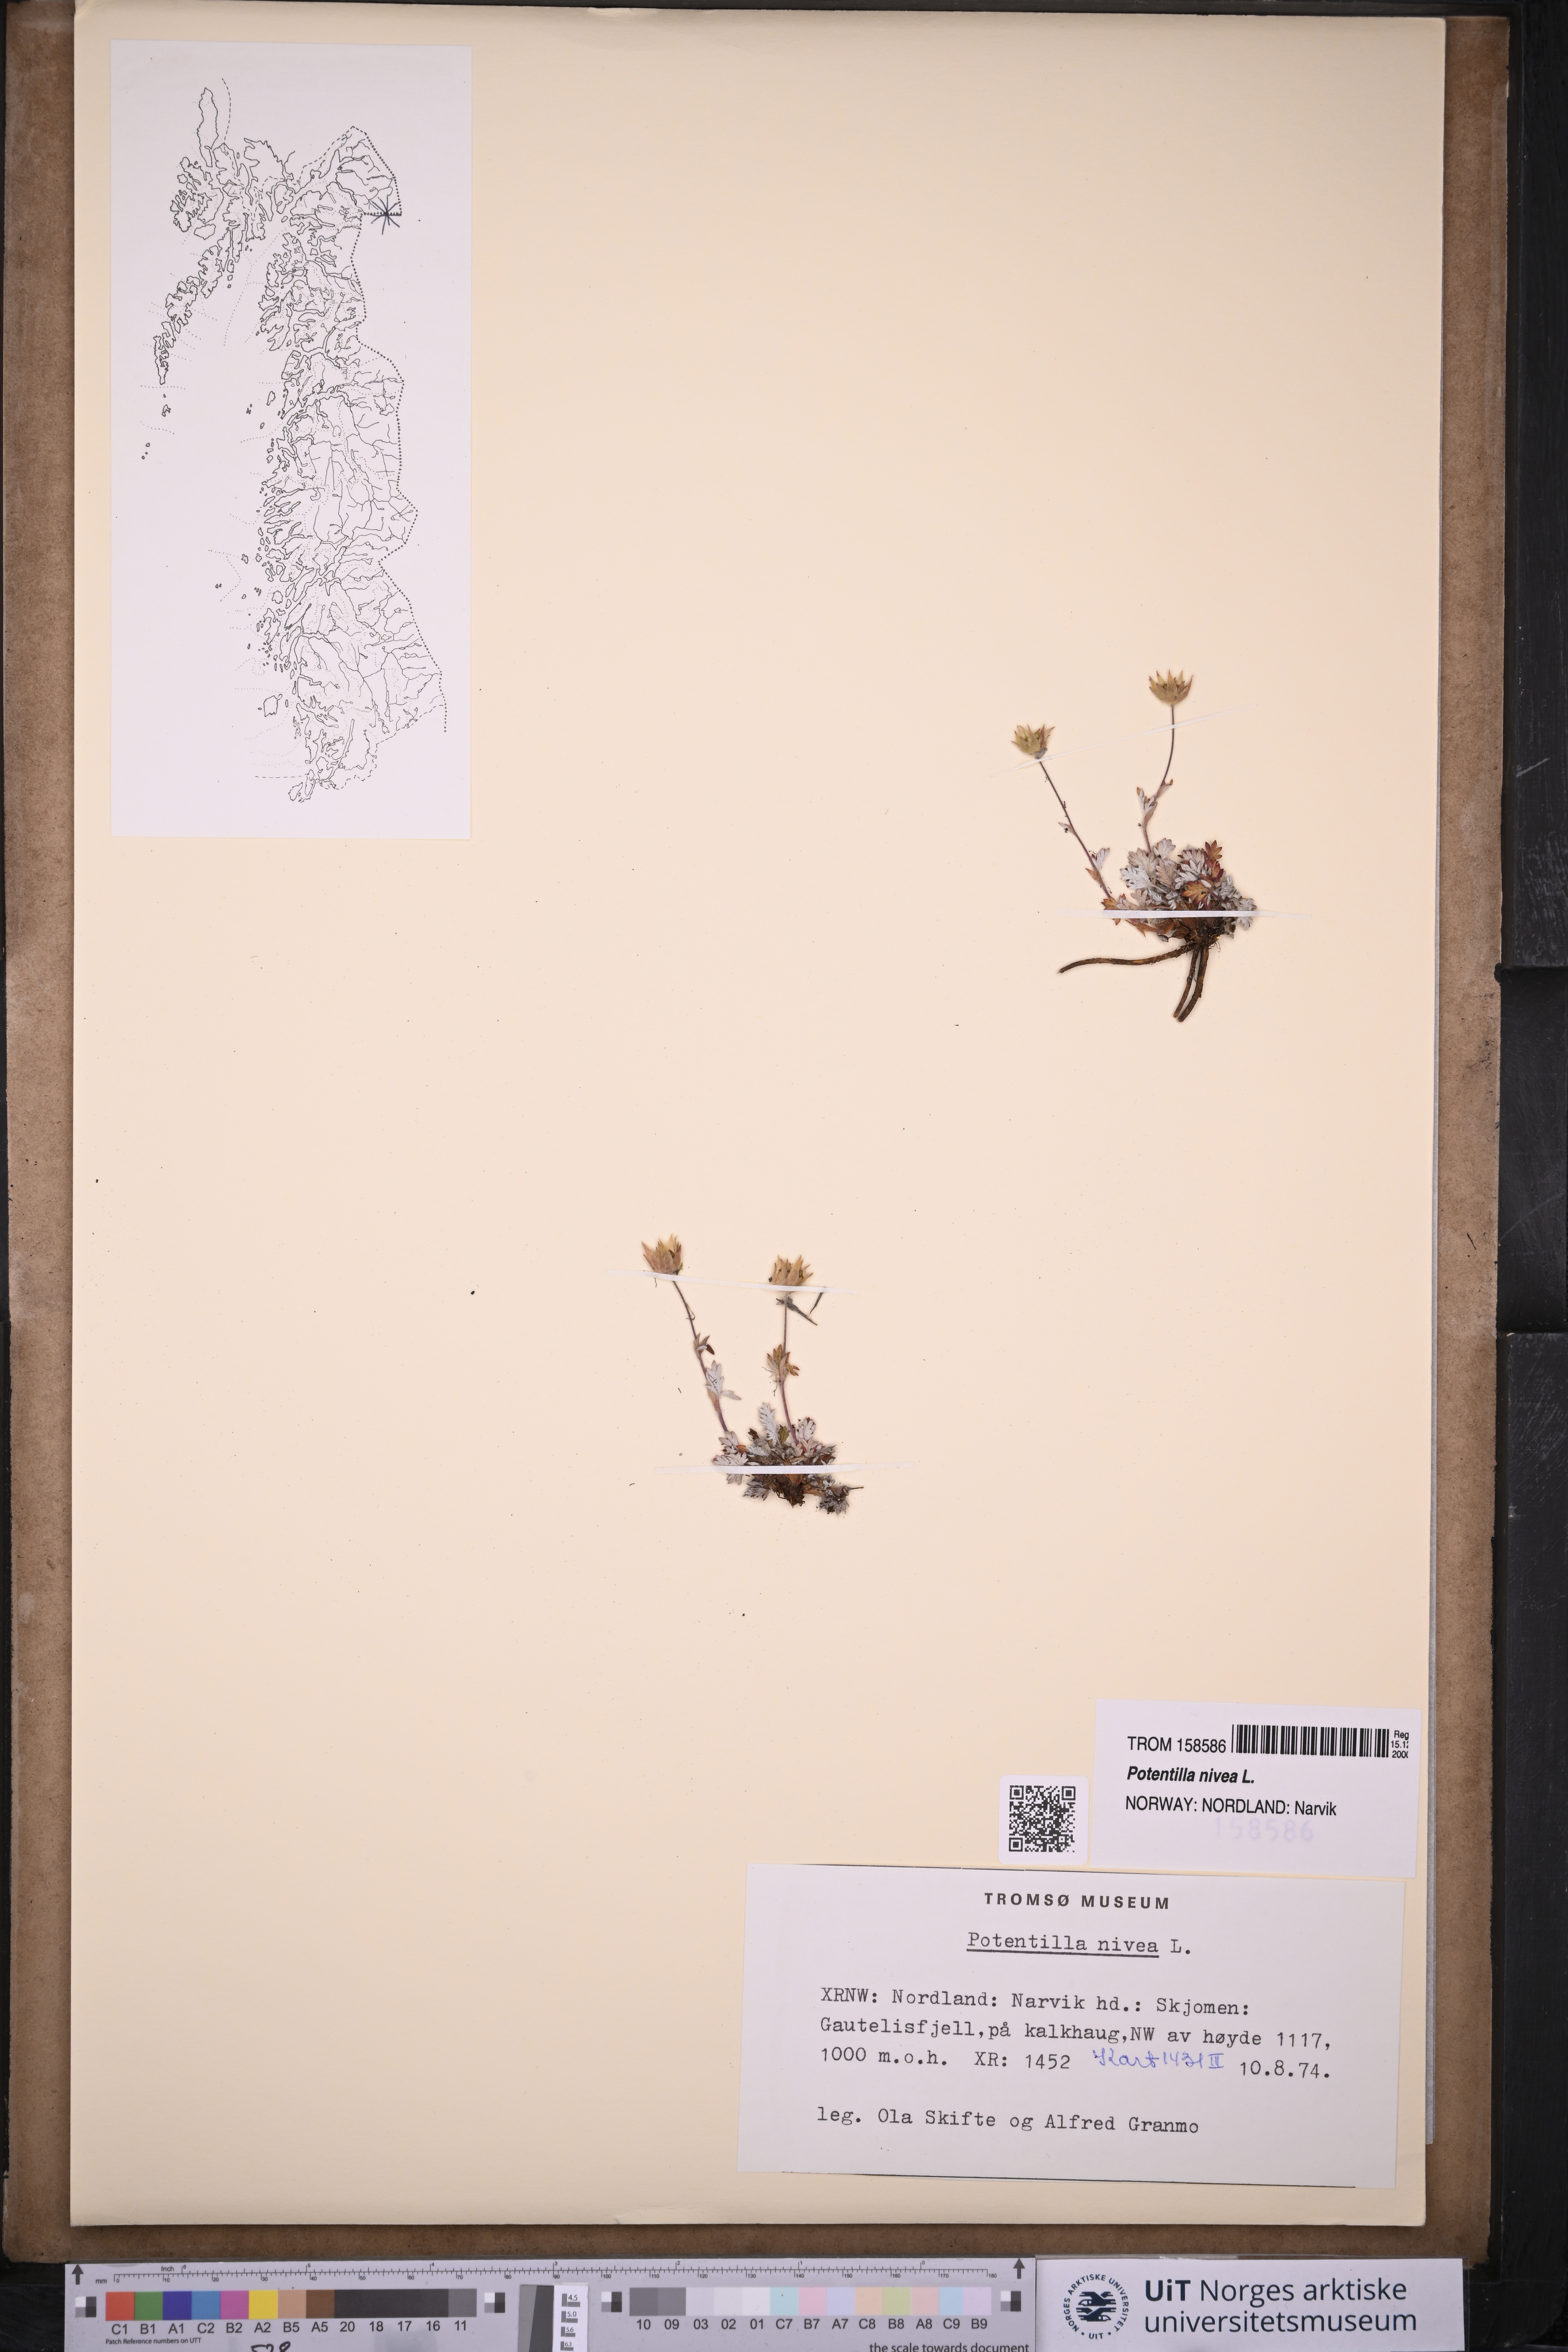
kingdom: Plantae
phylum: Tracheophyta
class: Magnoliopsida
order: Rosales
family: Rosaceae
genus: Potentilla
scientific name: Potentilla arenosa
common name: Bluff cinquefoil
